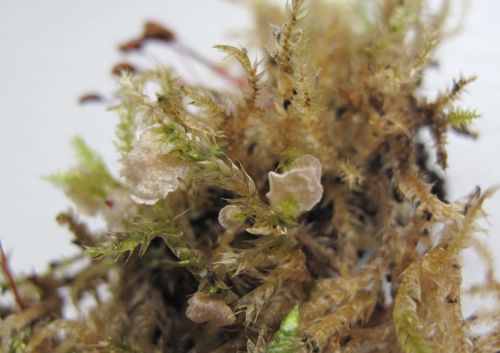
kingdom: Fungi
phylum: Basidiomycota
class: Agaricomycetes
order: Agaricales
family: Hygrophoraceae
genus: Arrhenia
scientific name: Arrhenia retiruga
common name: lille fontænehat
